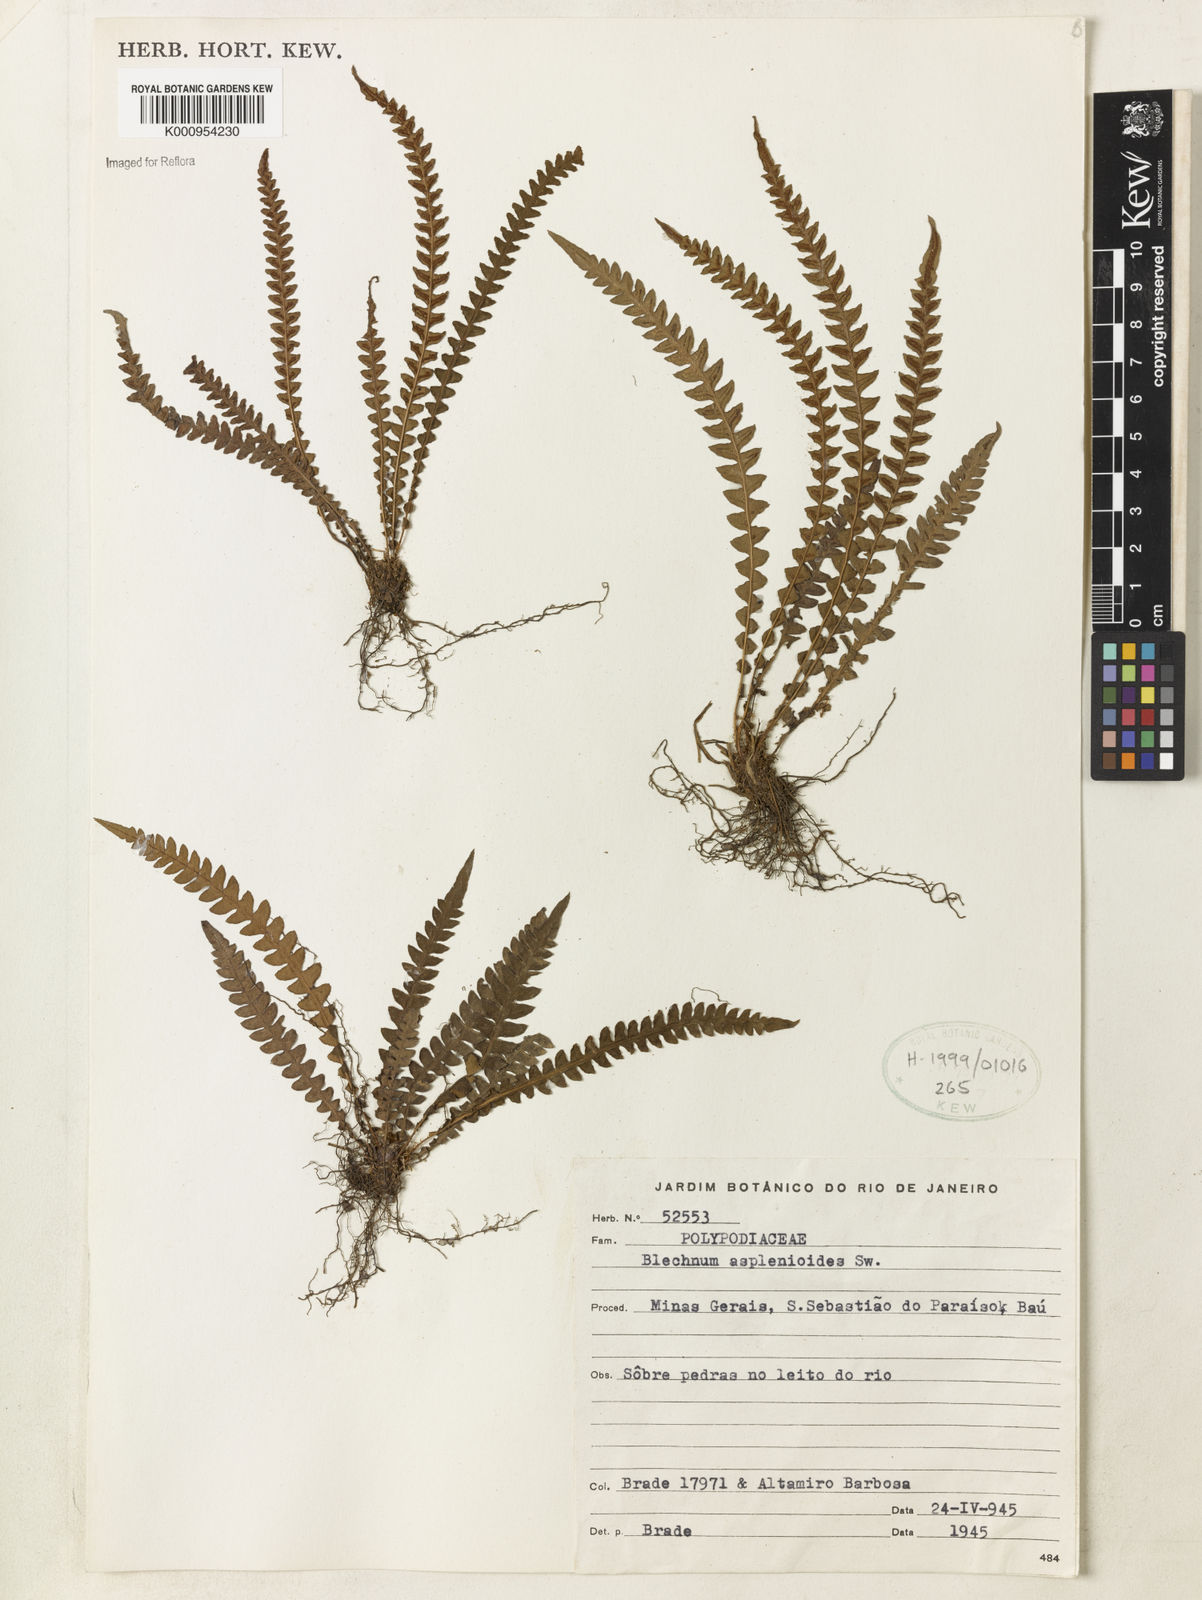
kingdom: Plantae
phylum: Tracheophyta
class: Polypodiopsida
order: Polypodiales
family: Blechnaceae
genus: Blechnum
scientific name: Blechnum asplenioides
